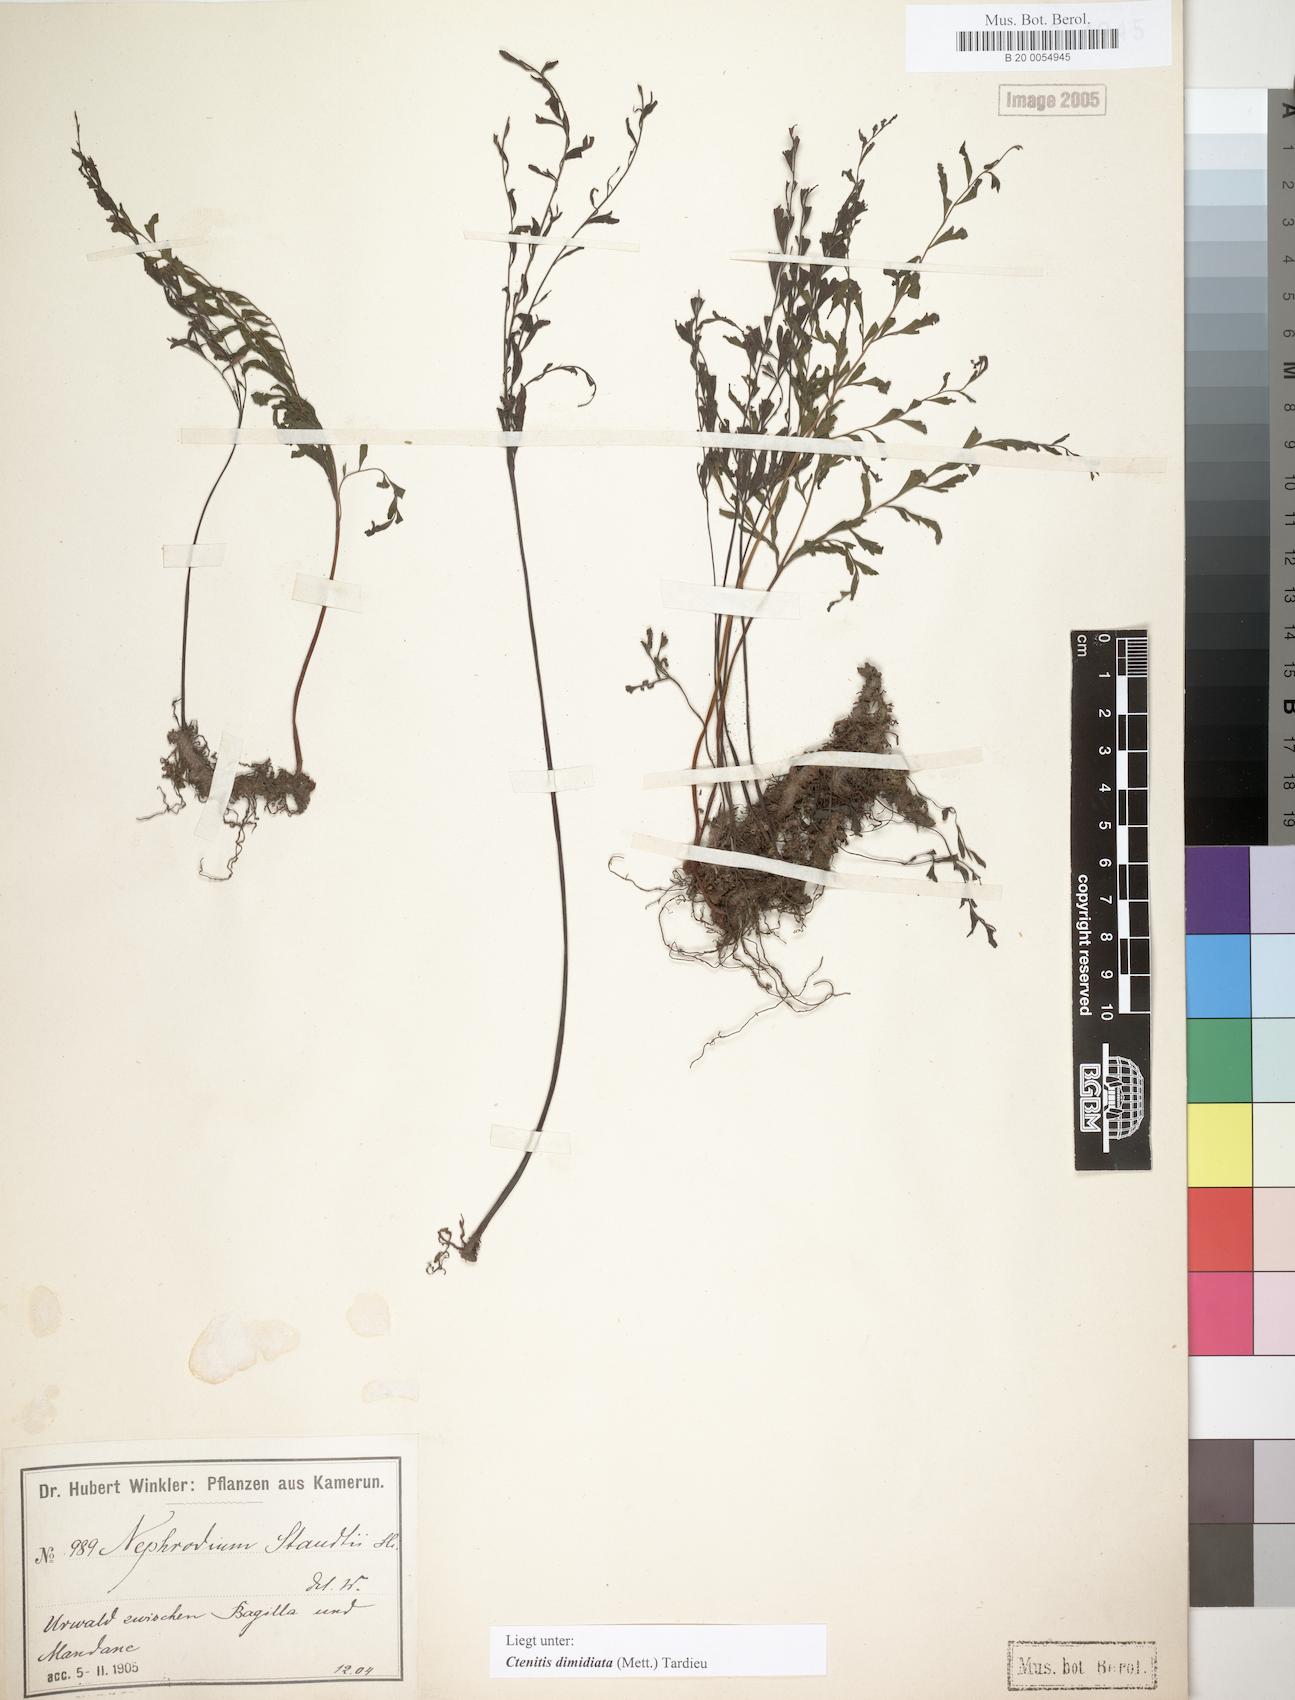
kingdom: Plantae
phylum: Tracheophyta
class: Polypodiopsida
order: Polypodiales
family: Tectariaceae
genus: Triplophyllum
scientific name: Triplophyllum dimidiatum
